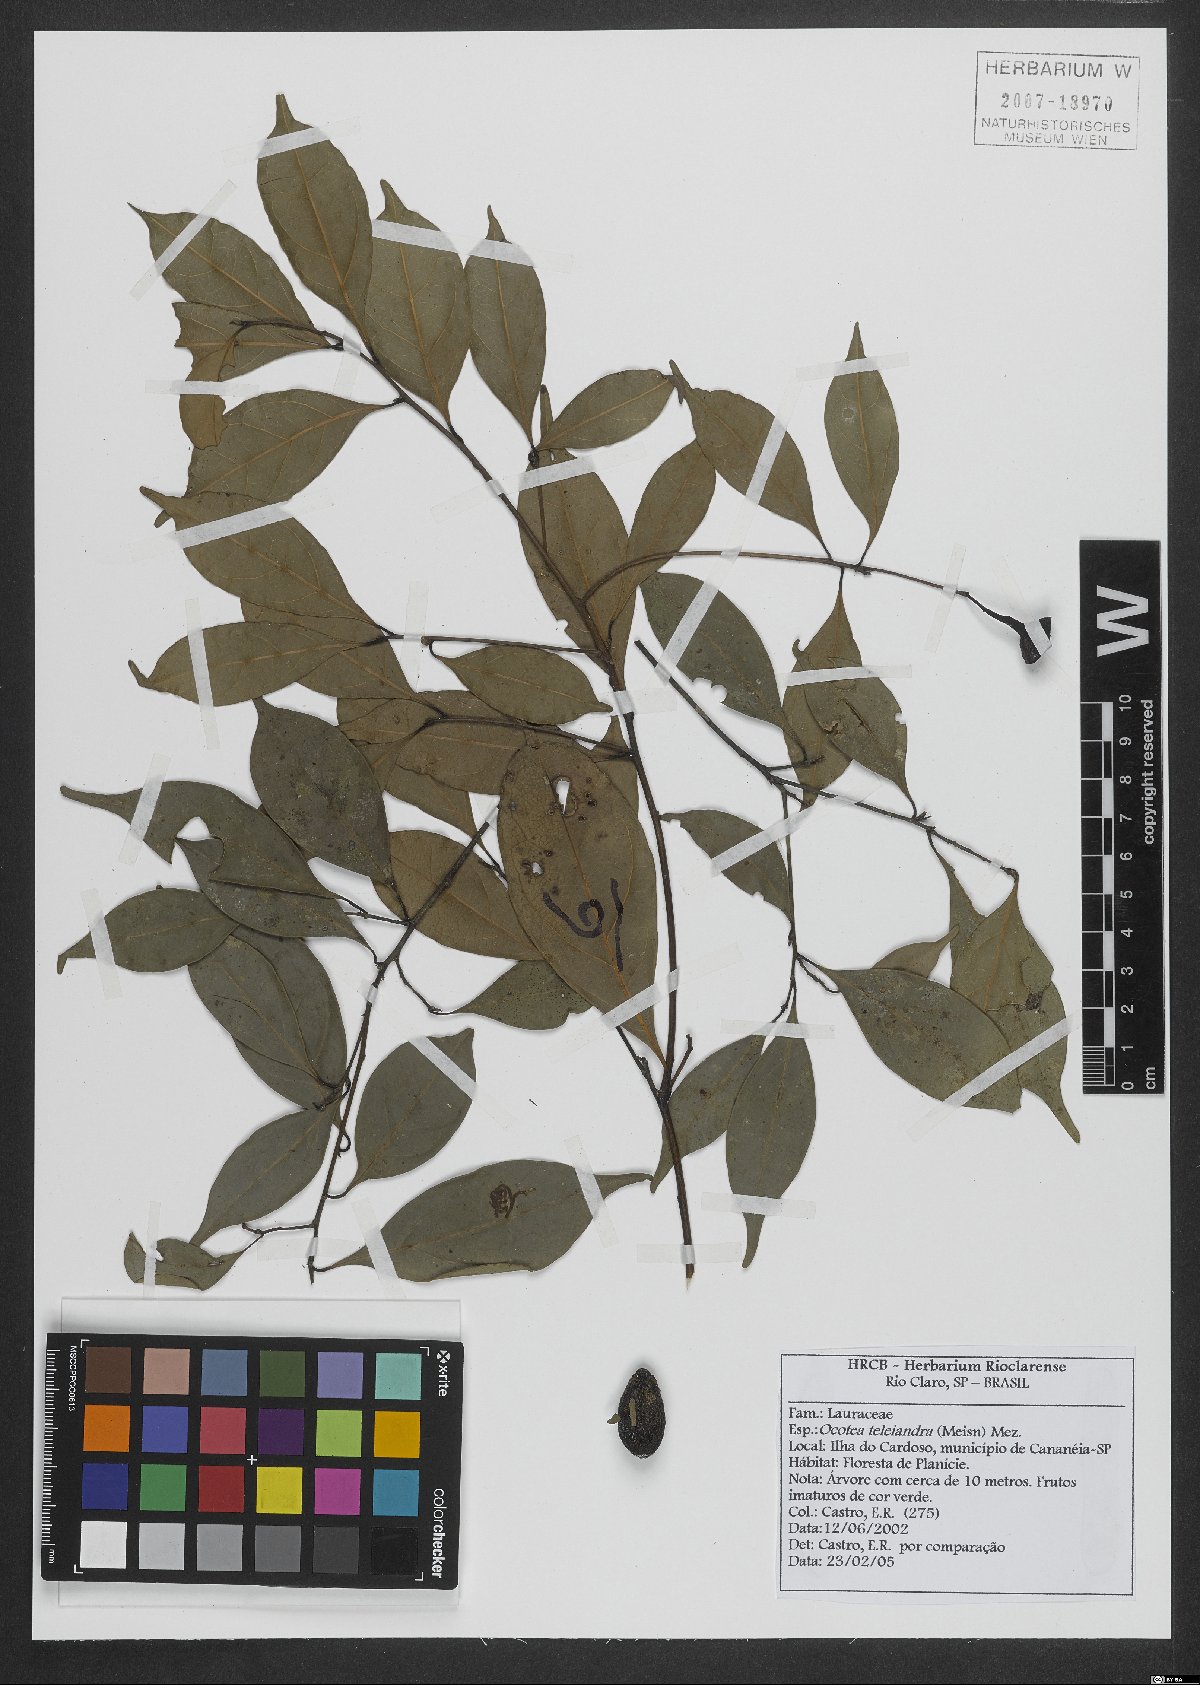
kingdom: Plantae
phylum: Tracheophyta
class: Magnoliopsida
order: Laurales
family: Lauraceae
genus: Ocotea
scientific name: Ocotea teleiandra
